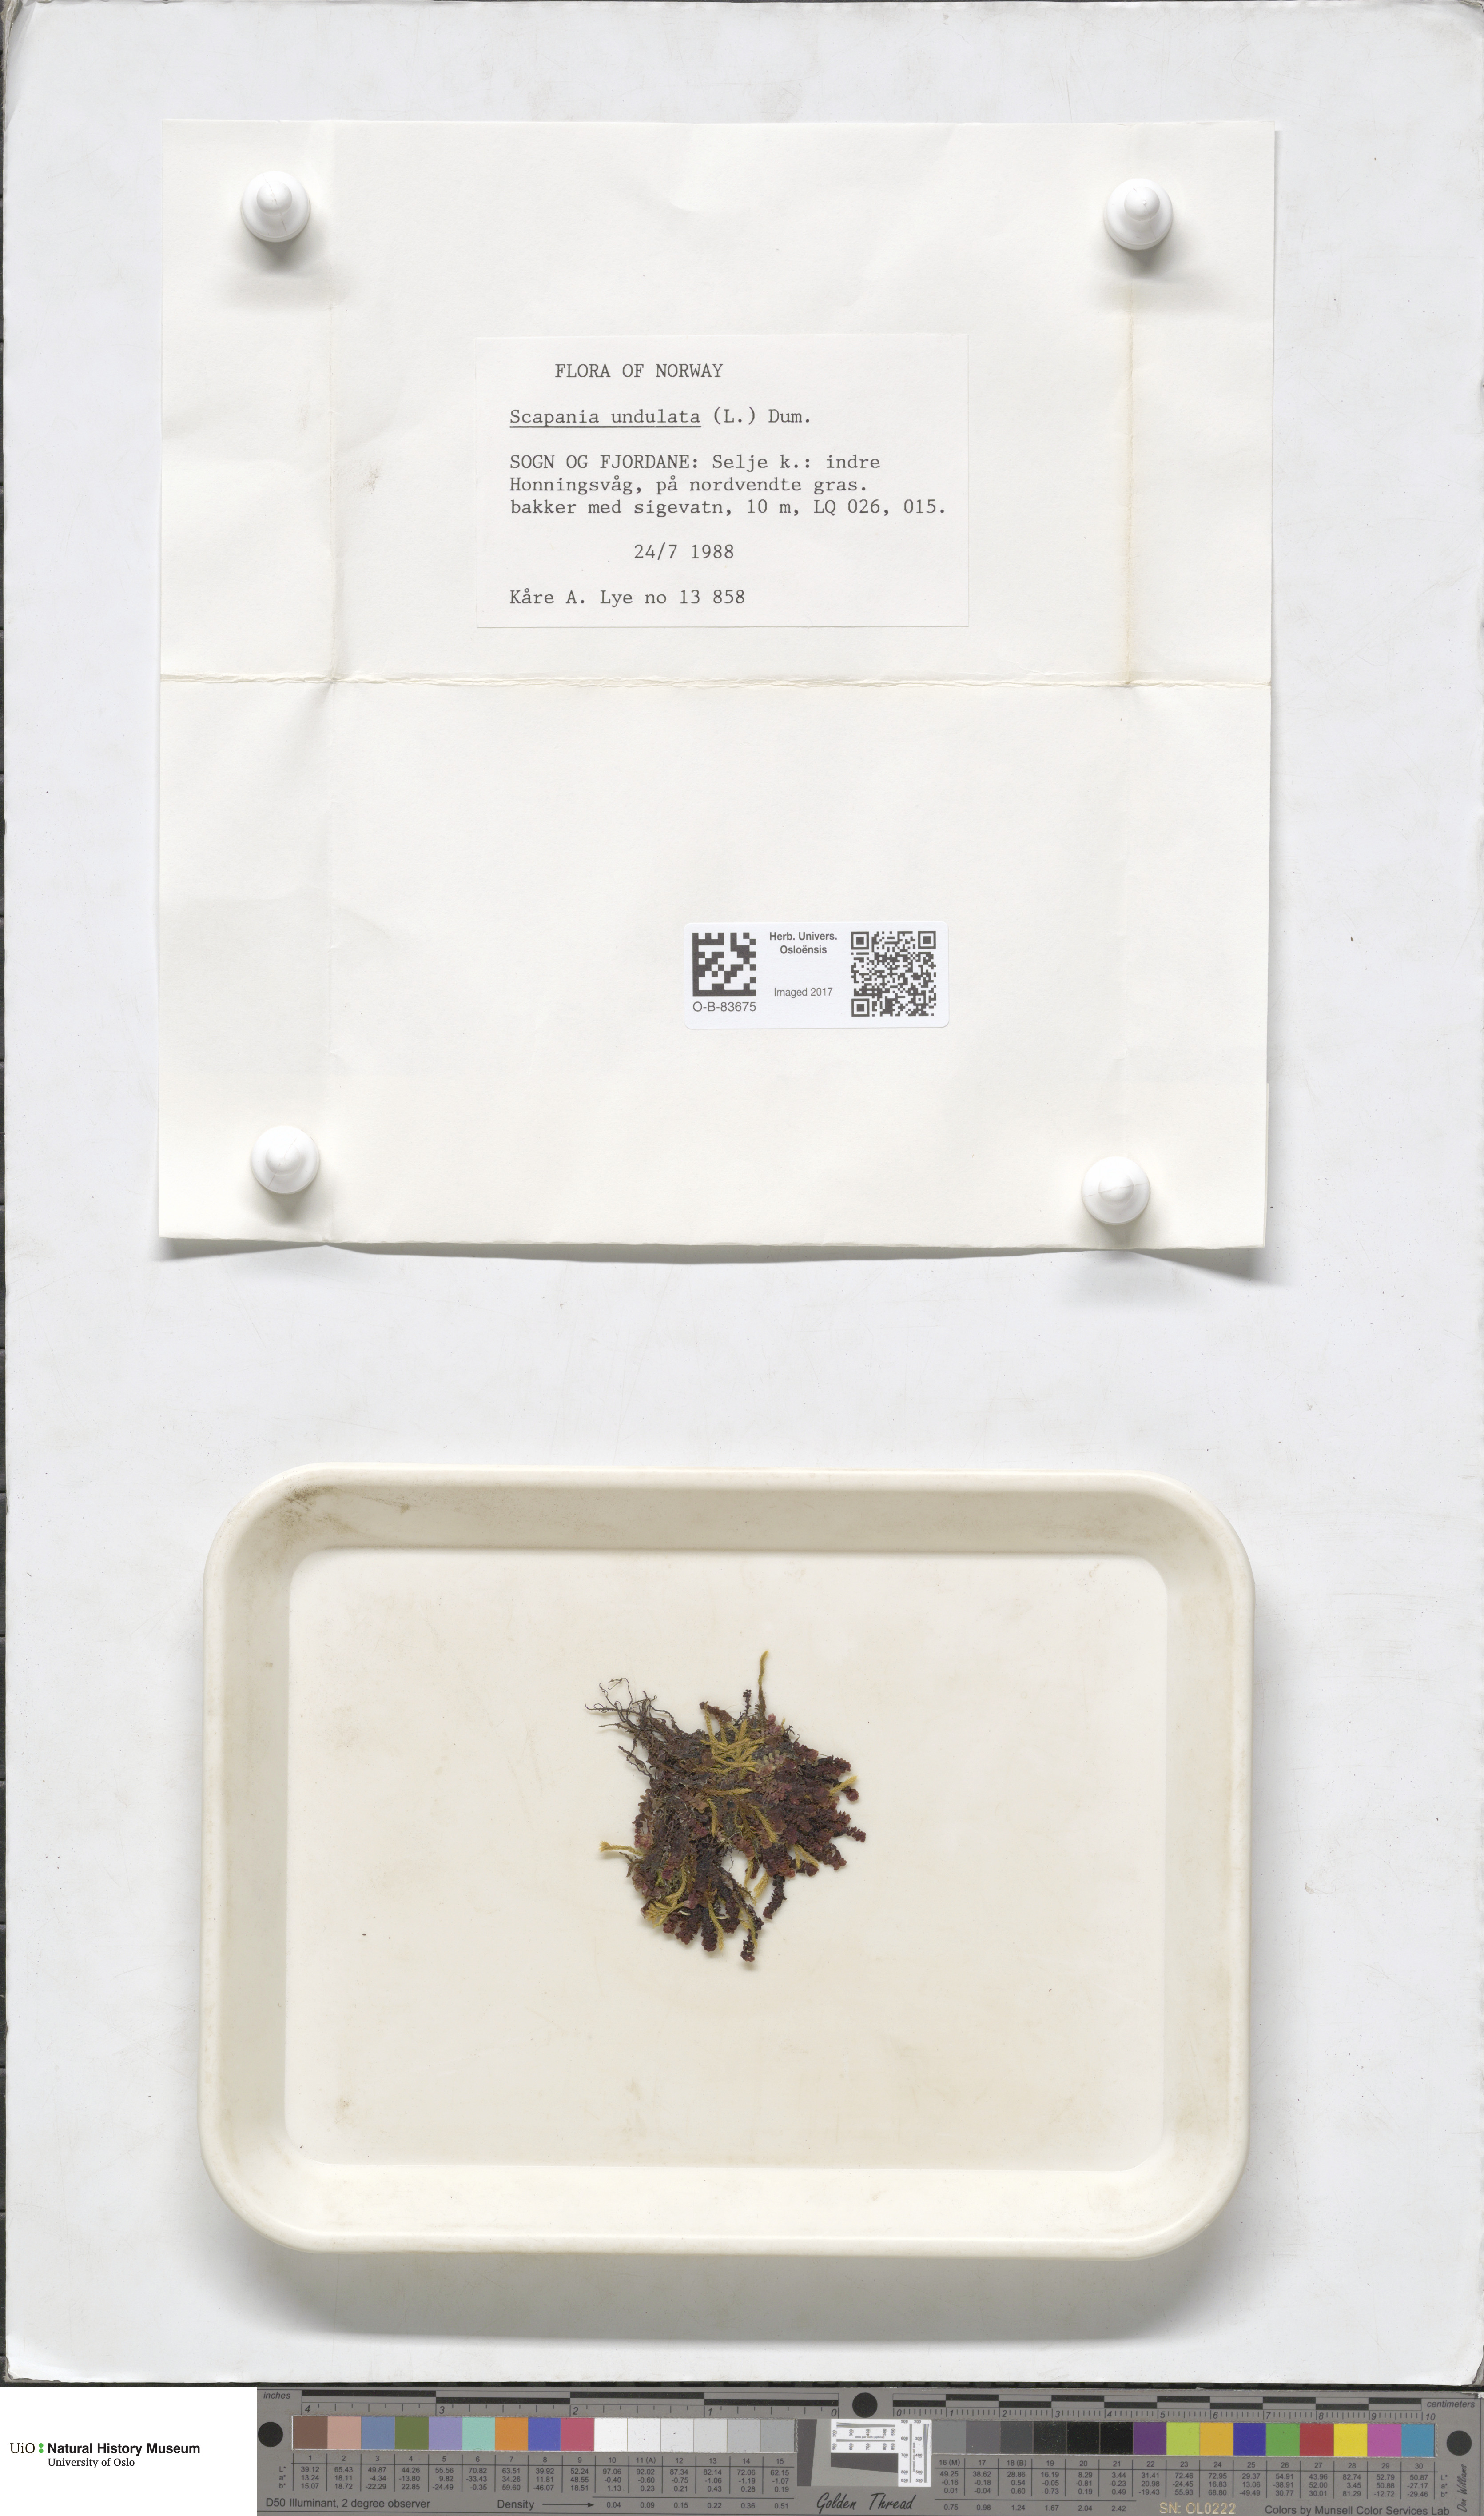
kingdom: Plantae
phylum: Marchantiophyta
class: Jungermanniopsida
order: Jungermanniales
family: Scapaniaceae
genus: Scapania
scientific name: Scapania undulata
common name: Water earwort
